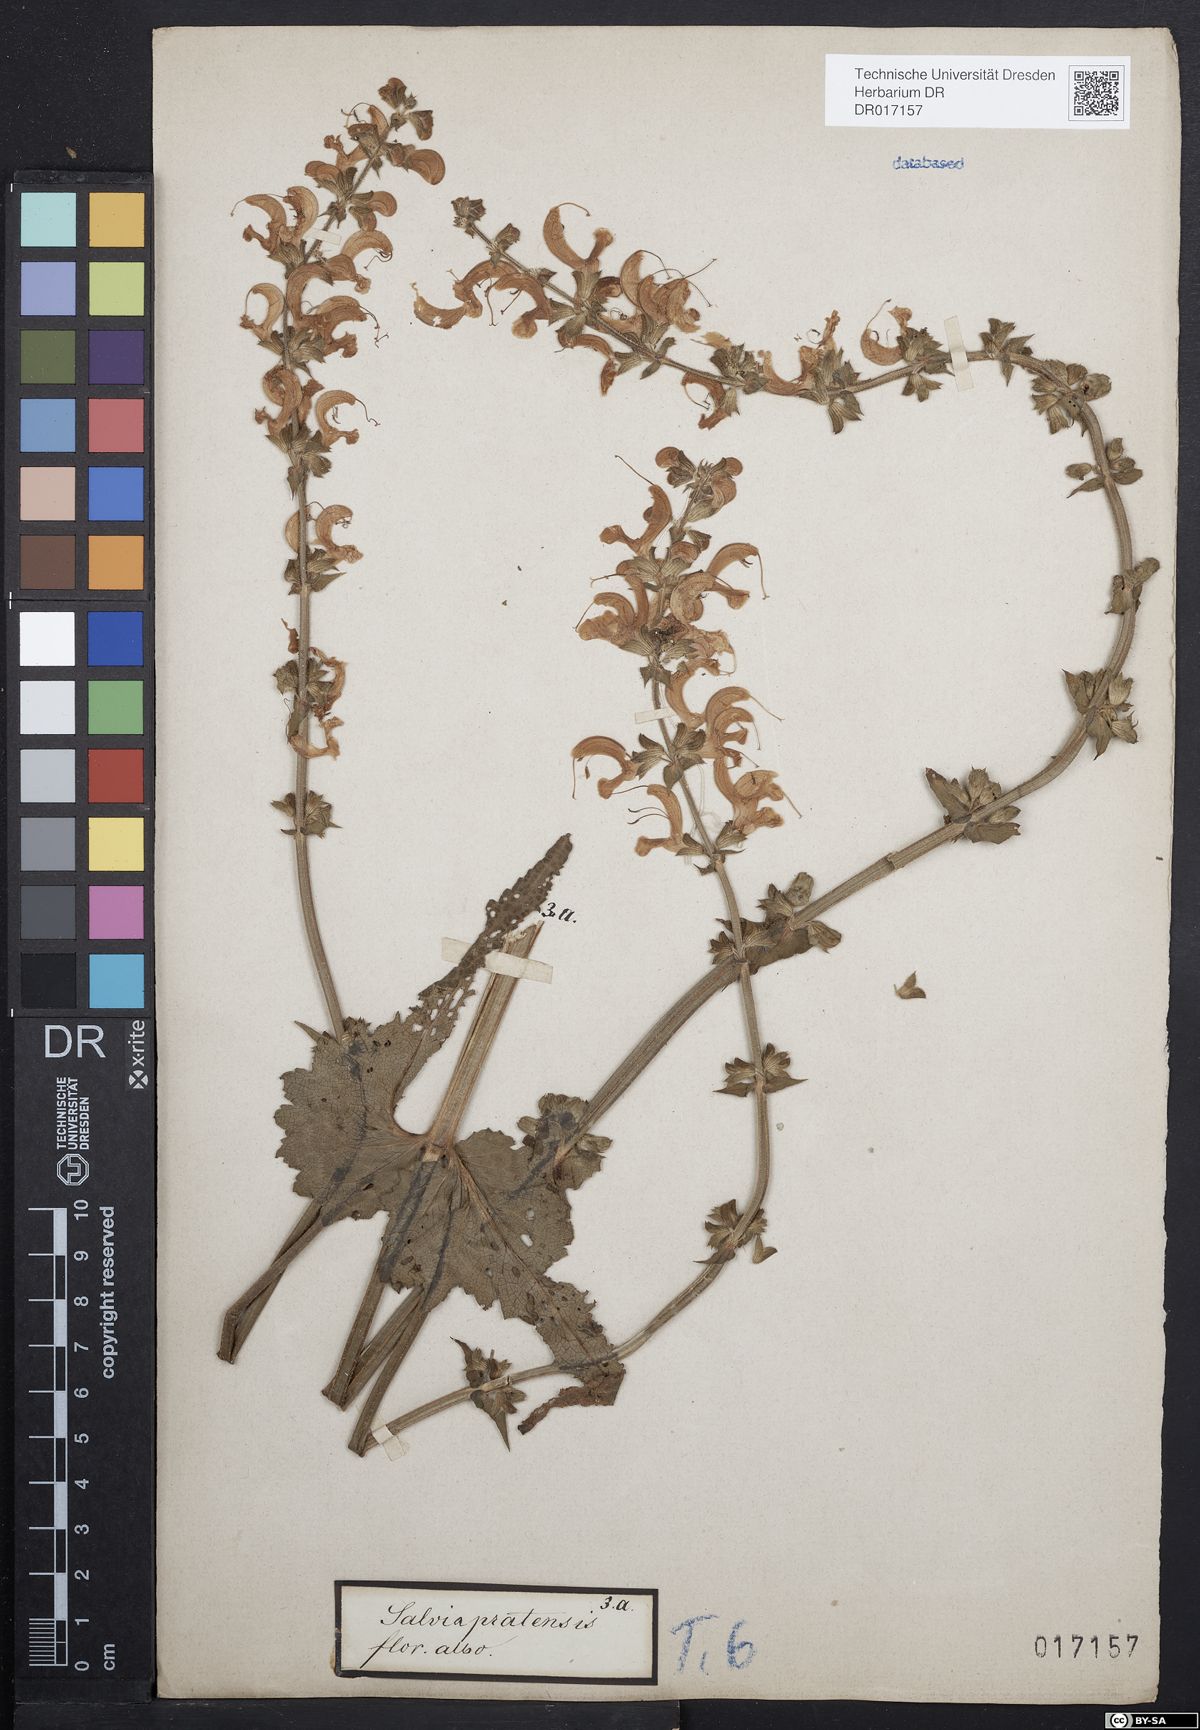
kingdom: Plantae
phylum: Tracheophyta
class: Magnoliopsida
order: Lamiales
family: Lamiaceae
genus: Salvia
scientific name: Salvia pratensis
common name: Meadow sage
